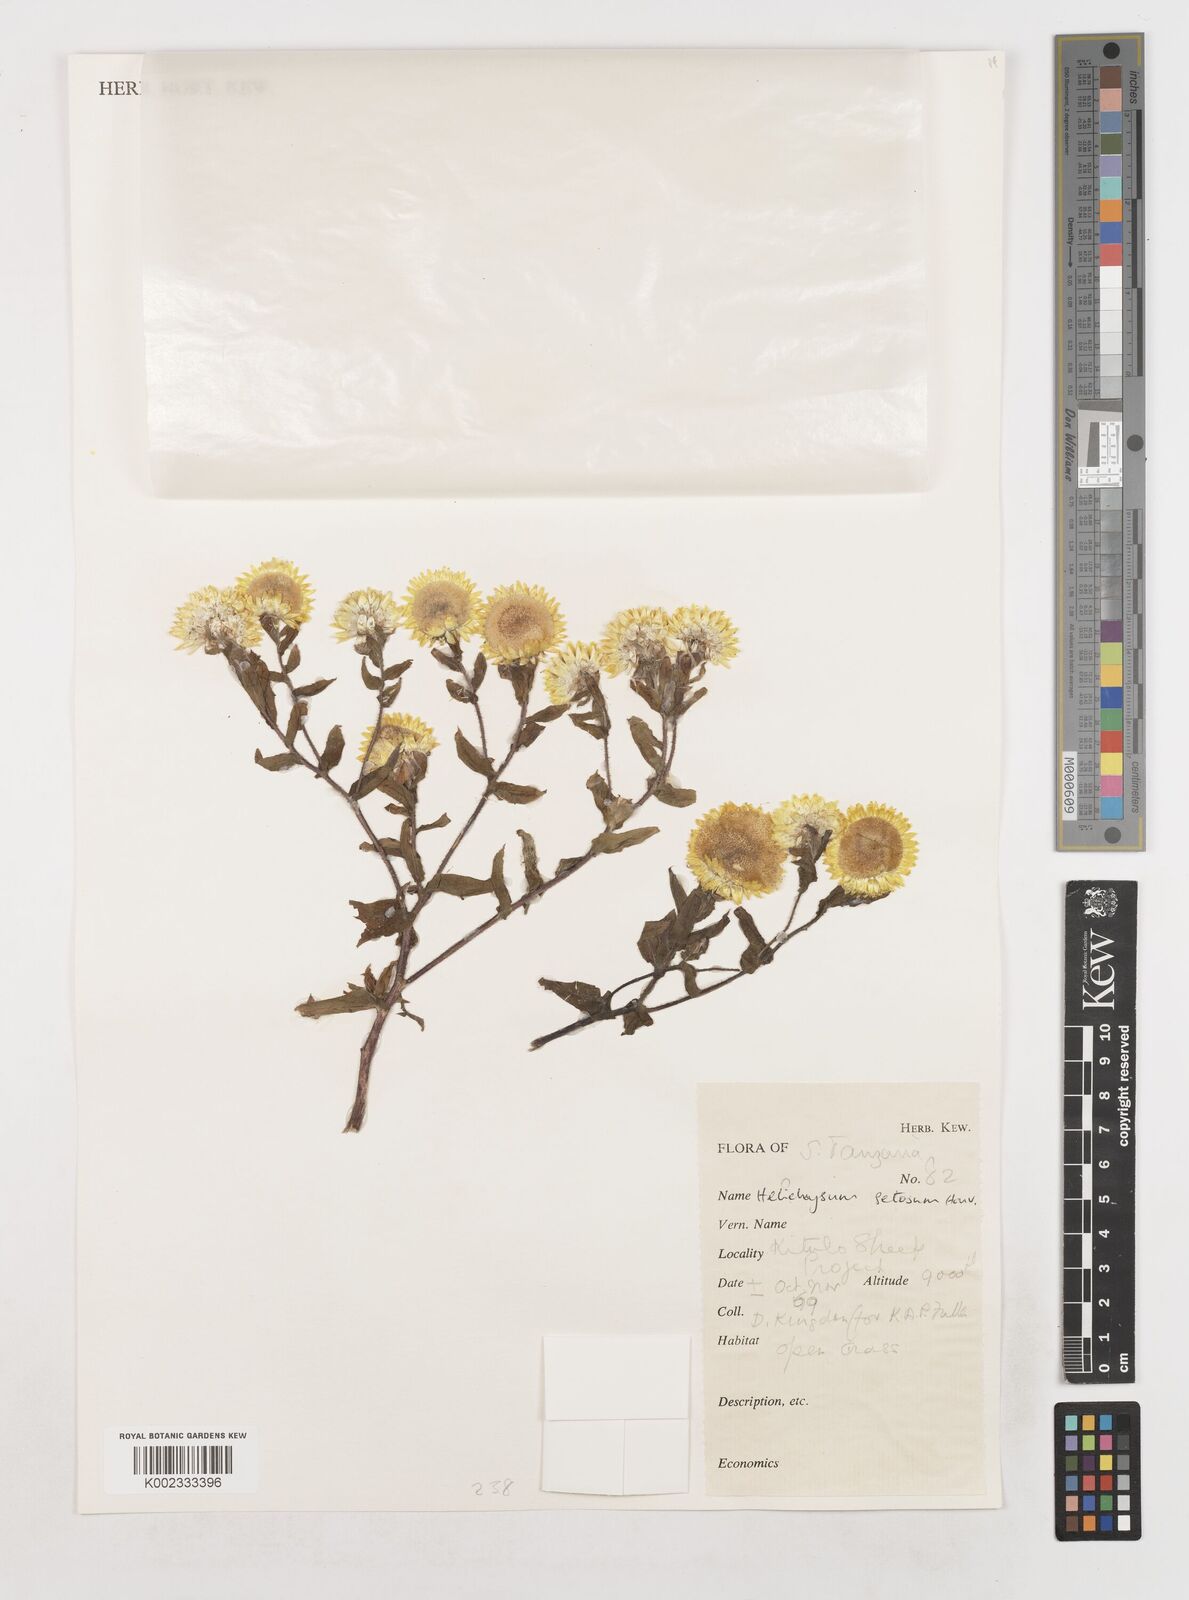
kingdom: Plantae
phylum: Tracheophyta
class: Magnoliopsida
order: Asterales
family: Asteraceae
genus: Helichrysum
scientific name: Helichrysum setosum
